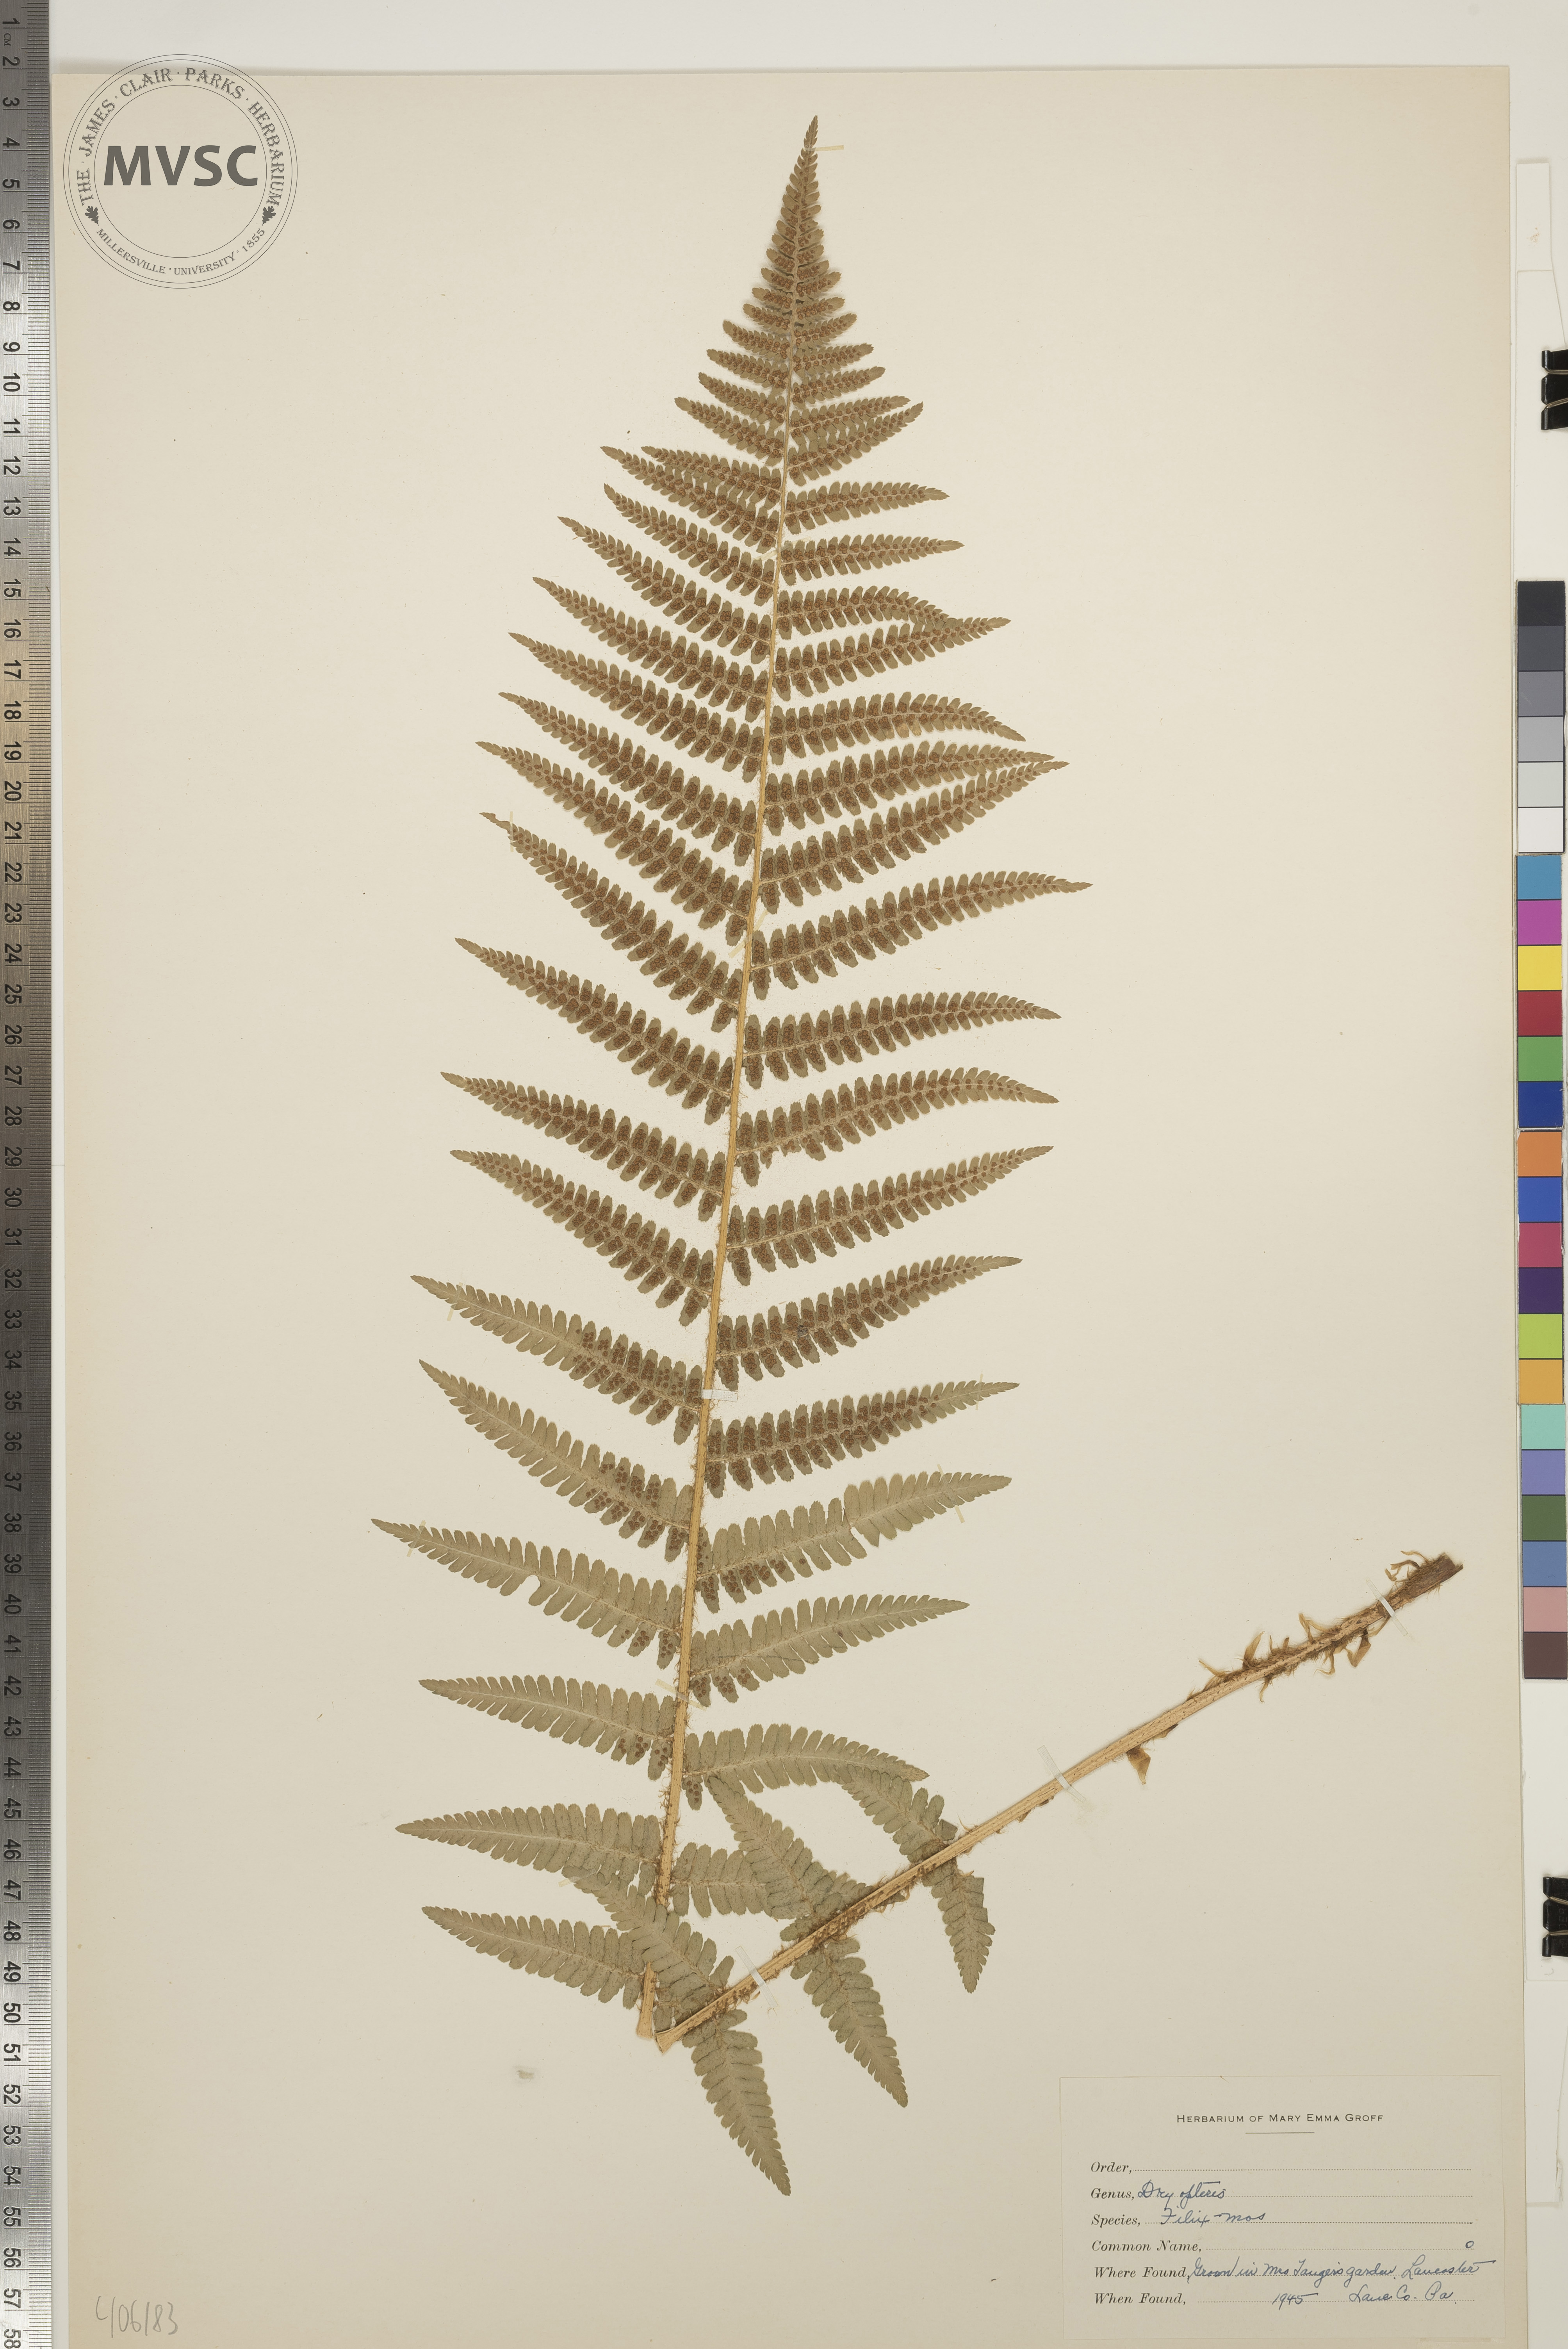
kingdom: Plantae
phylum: Tracheophyta
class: Polypodiopsida
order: Polypodiales
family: Dryopteridaceae
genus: Dryopteris
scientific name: Dryopteris filix-mas
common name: Male fern
